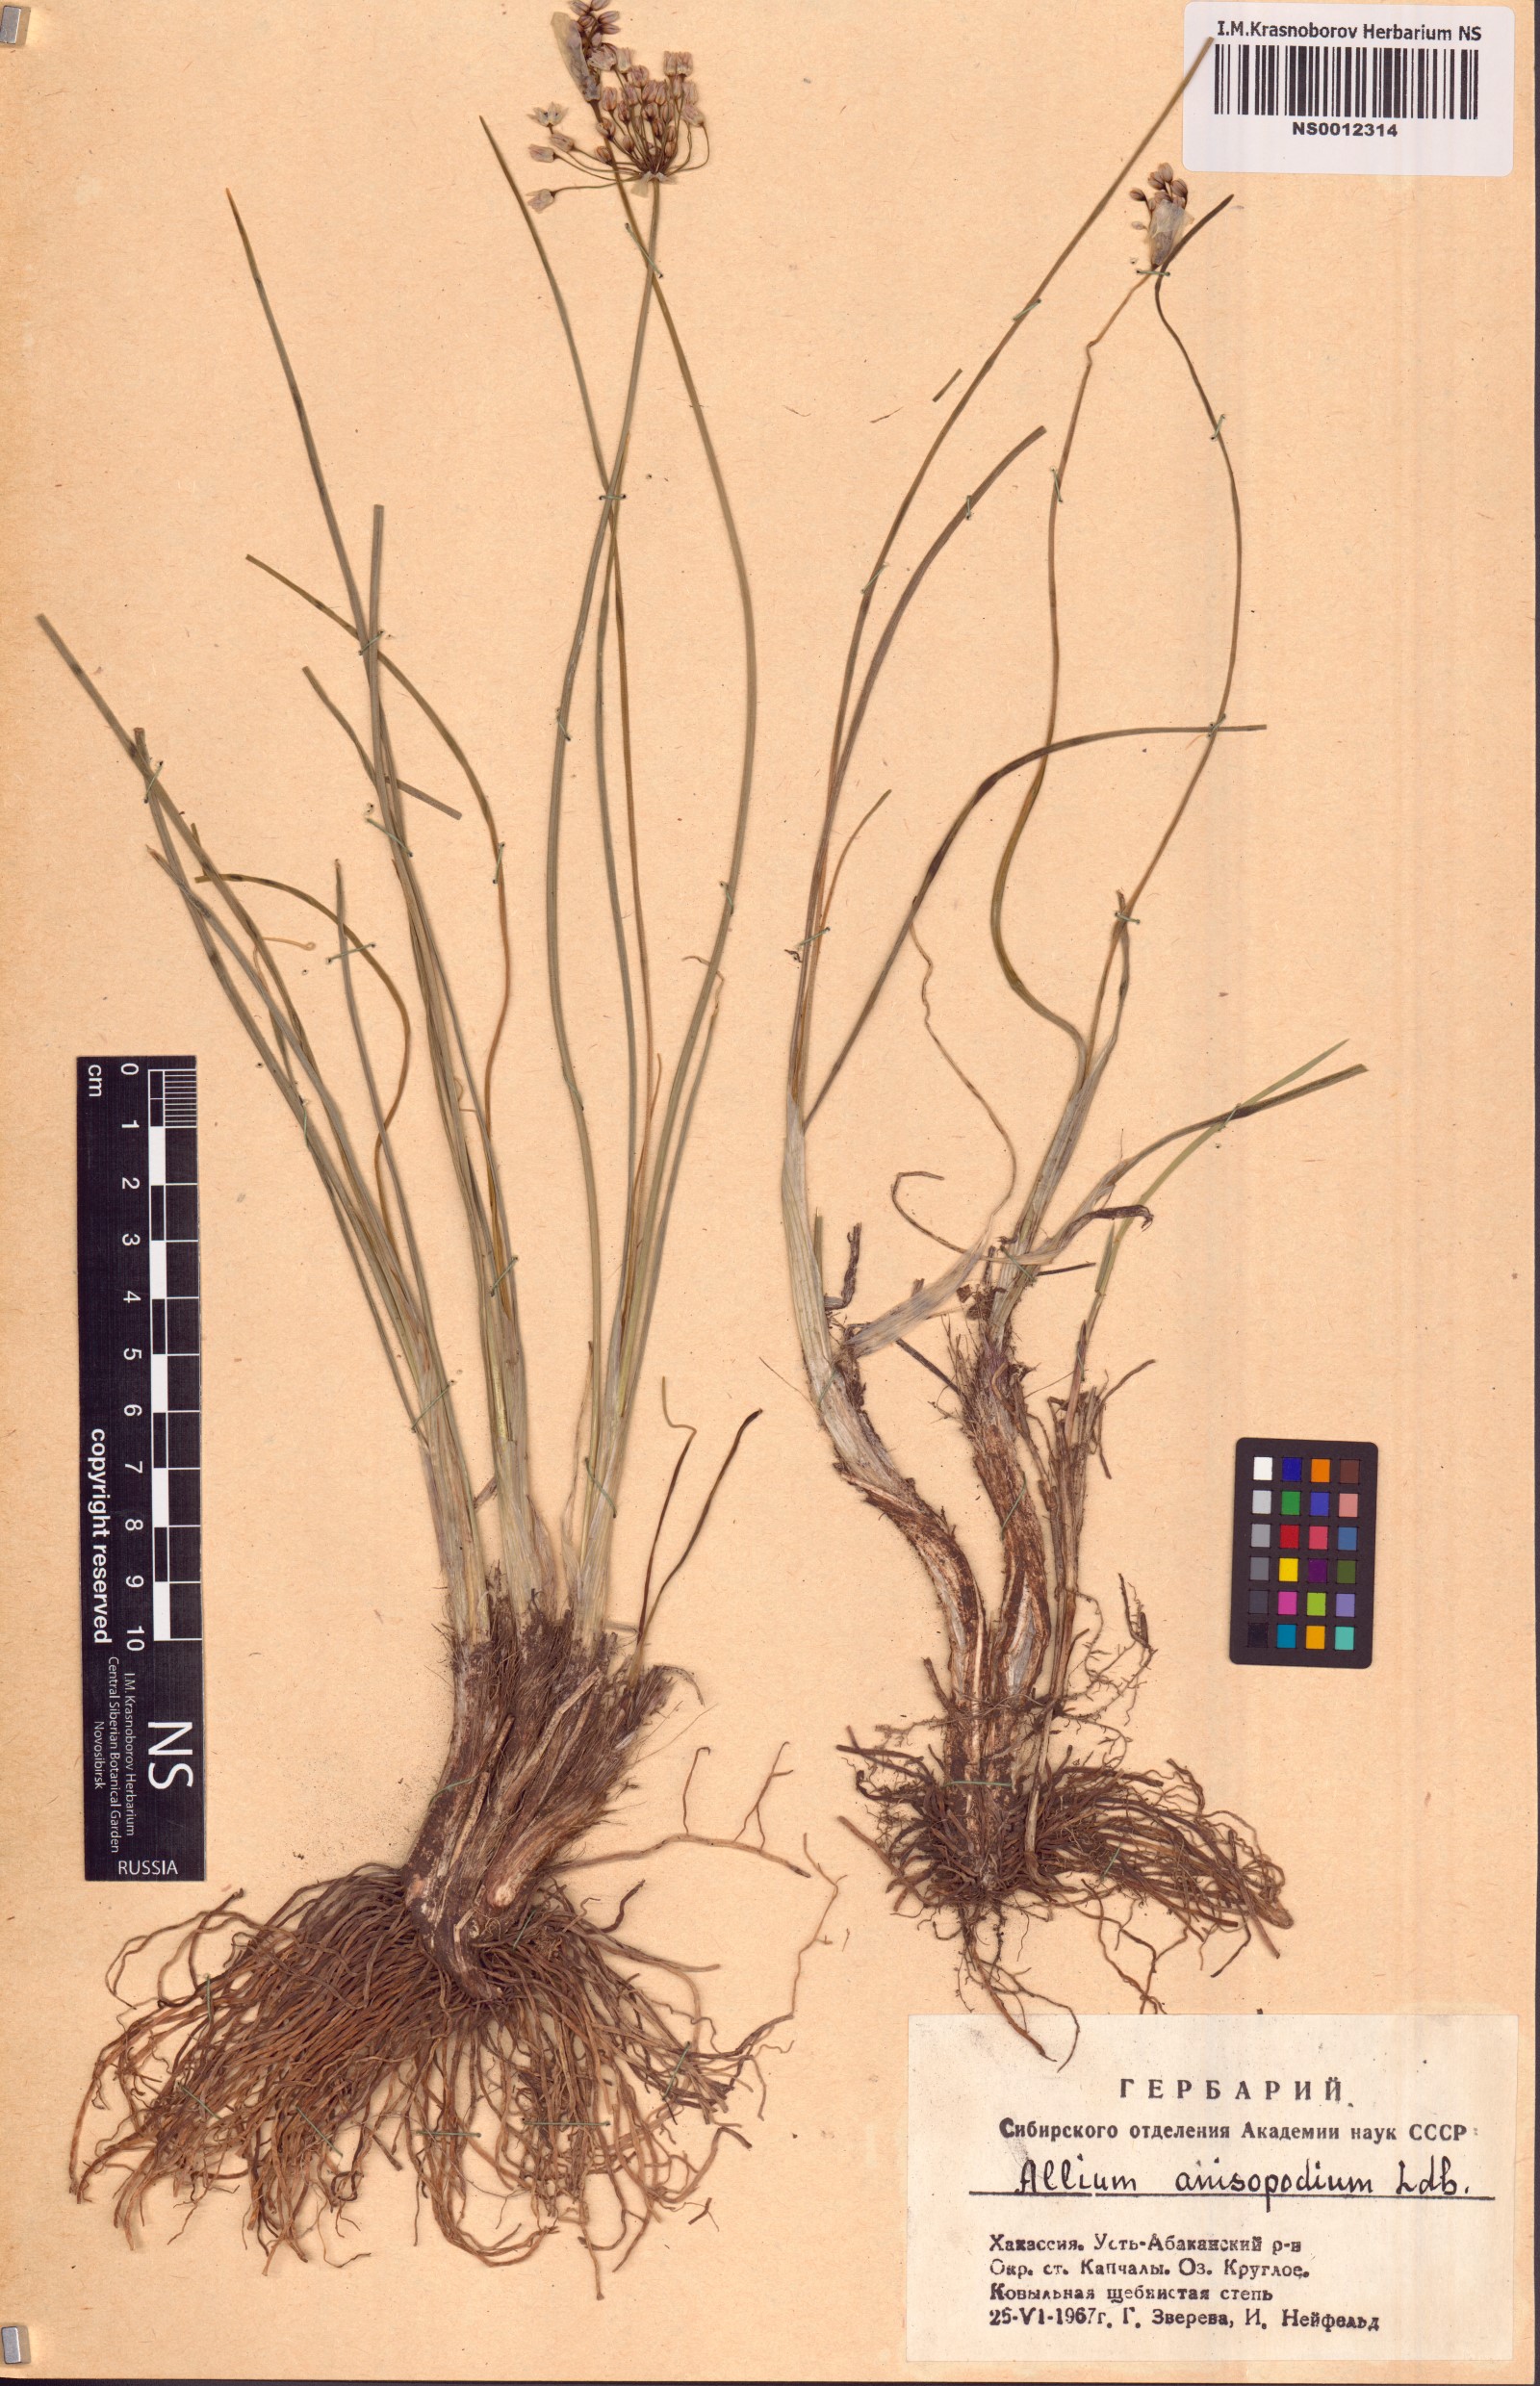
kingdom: Plantae
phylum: Tracheophyta
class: Liliopsida
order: Asparagales
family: Amaryllidaceae
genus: Allium
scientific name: Allium anisopodium
